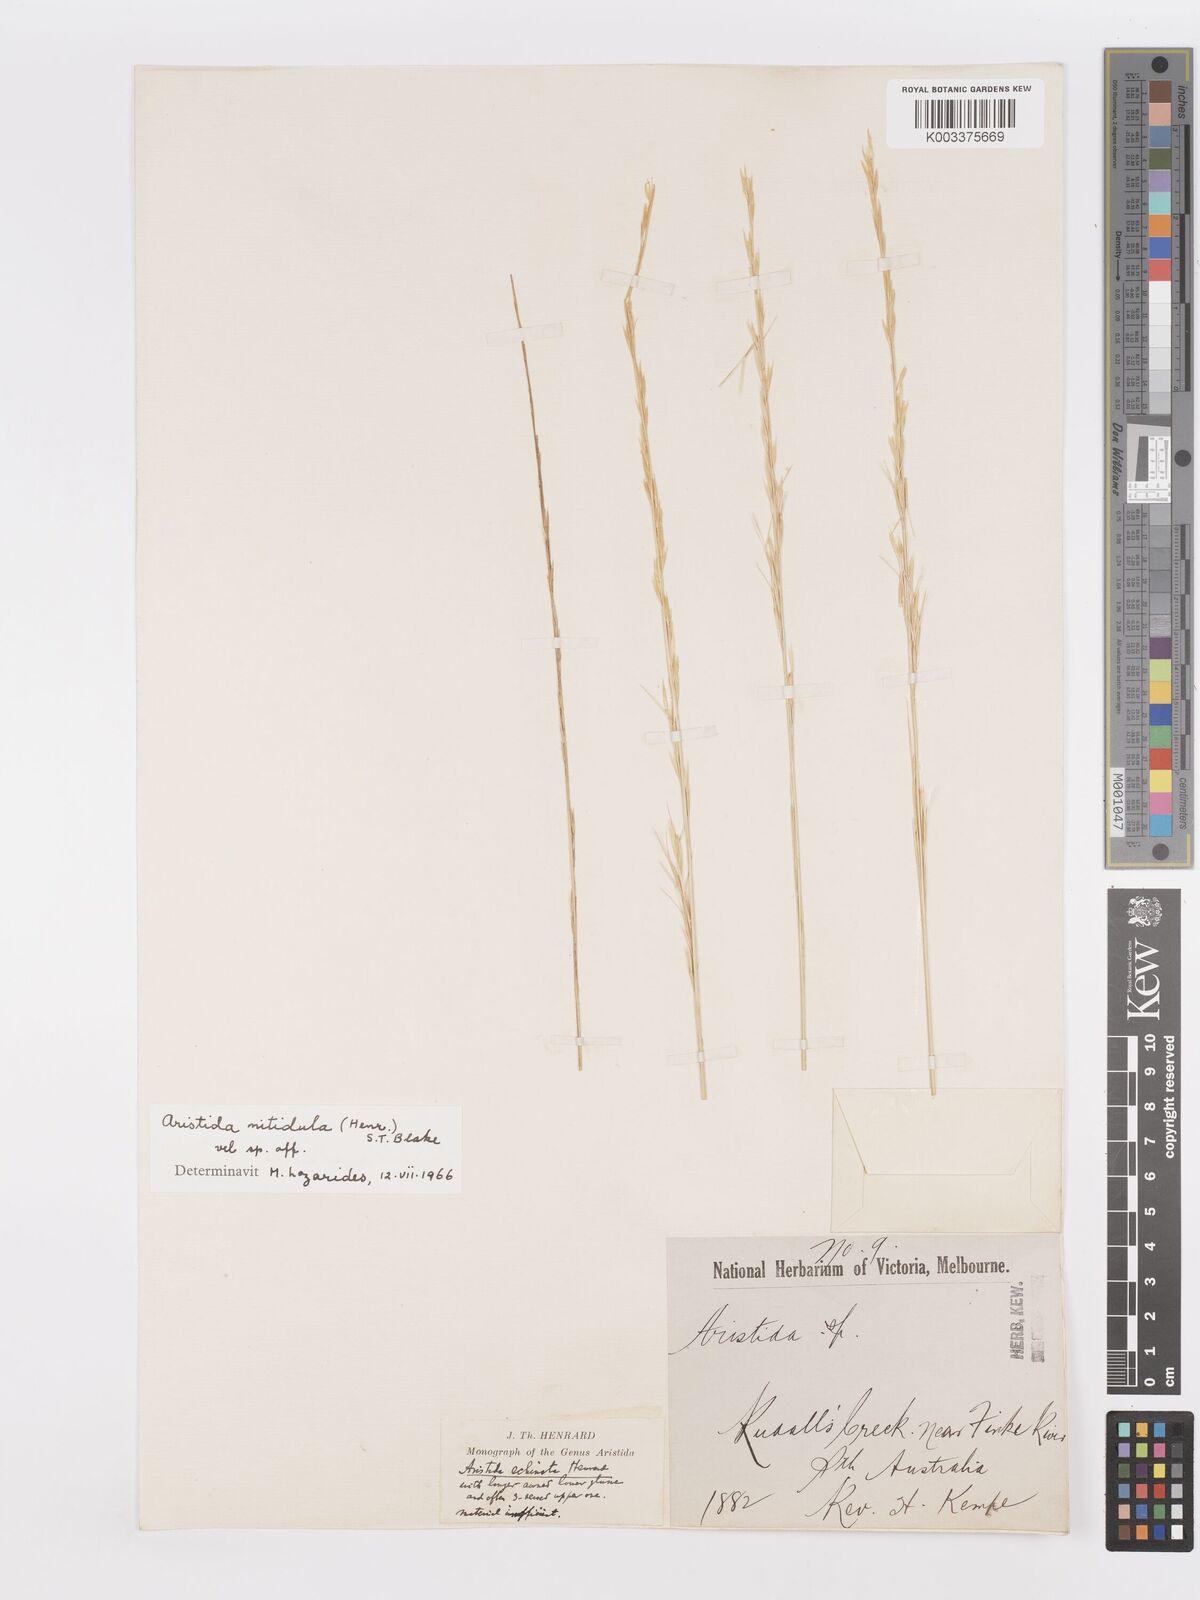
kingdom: Plantae
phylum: Tracheophyta
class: Liliopsida
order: Poales
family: Poaceae
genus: Aristida
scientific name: Aristida nitidula
